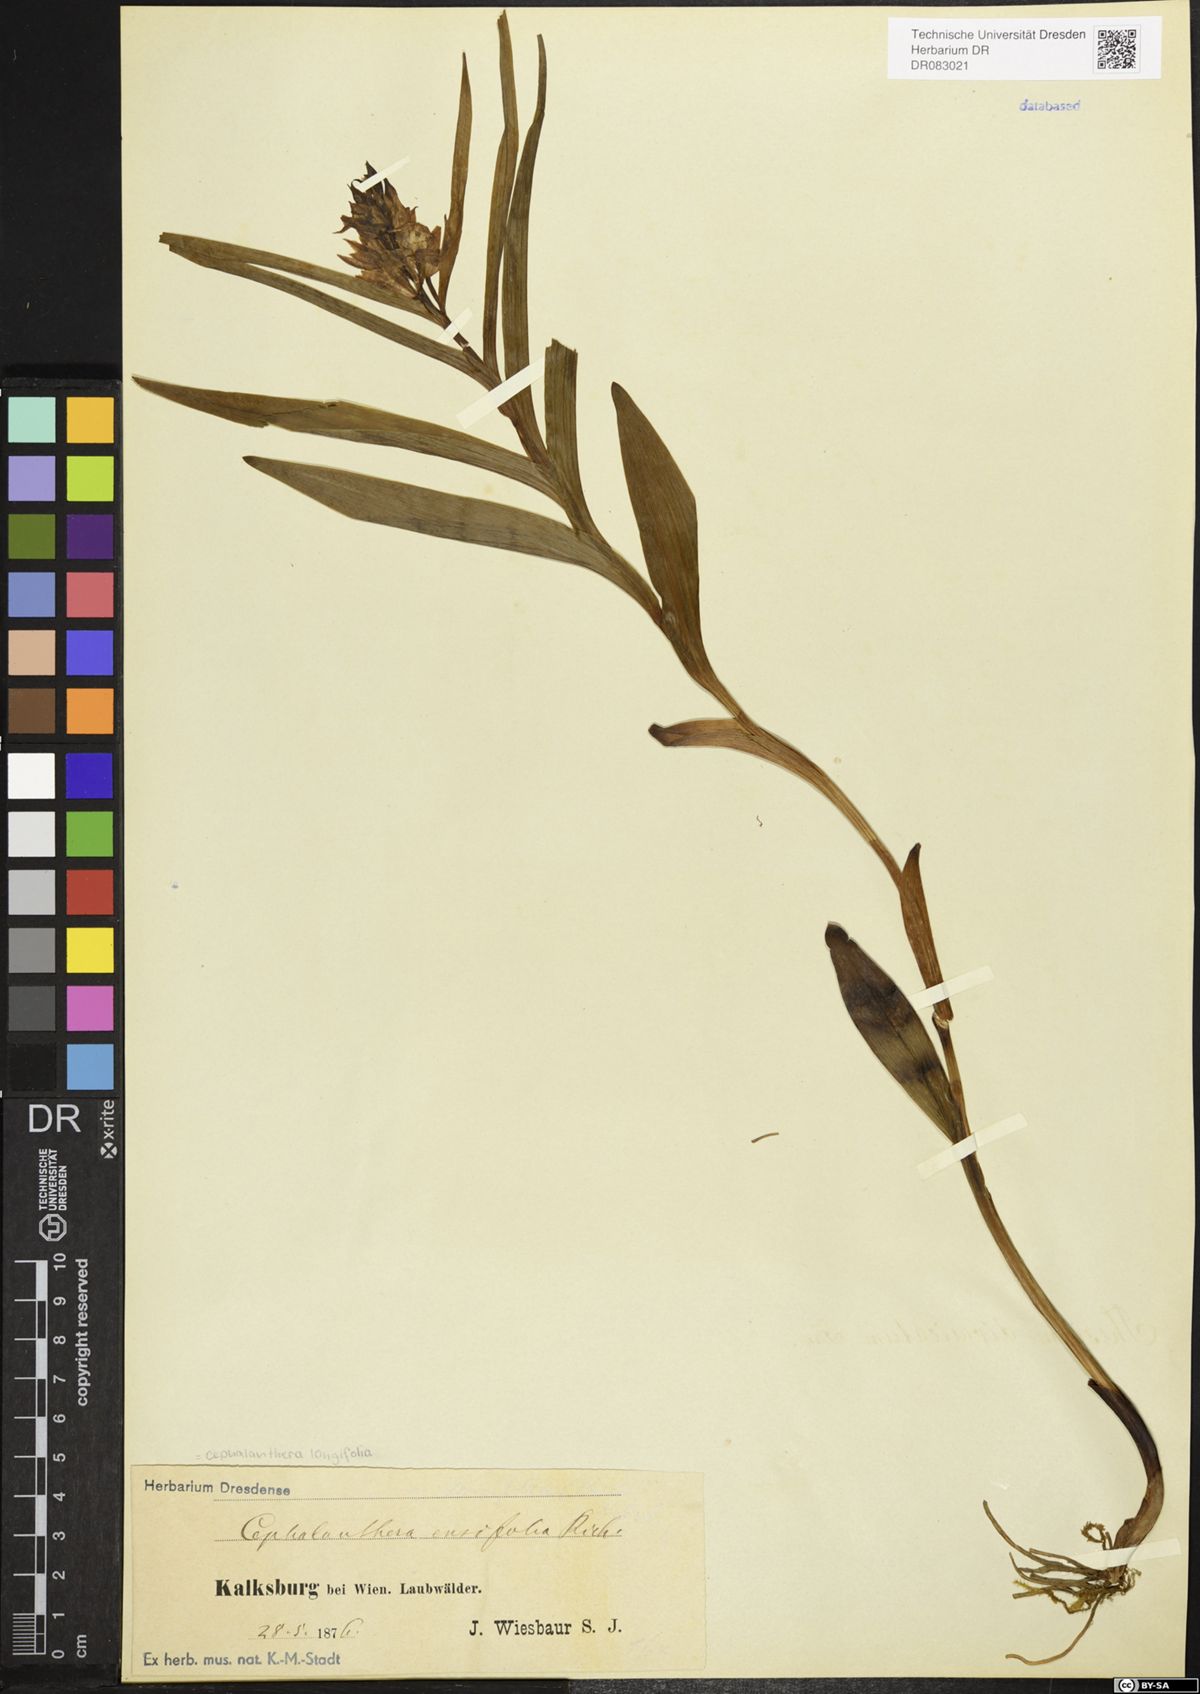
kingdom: Plantae
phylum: Tracheophyta
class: Liliopsida
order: Asparagales
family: Orchidaceae
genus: Cephalanthera
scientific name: Cephalanthera longifolia
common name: Narrow-leaved helleborine
